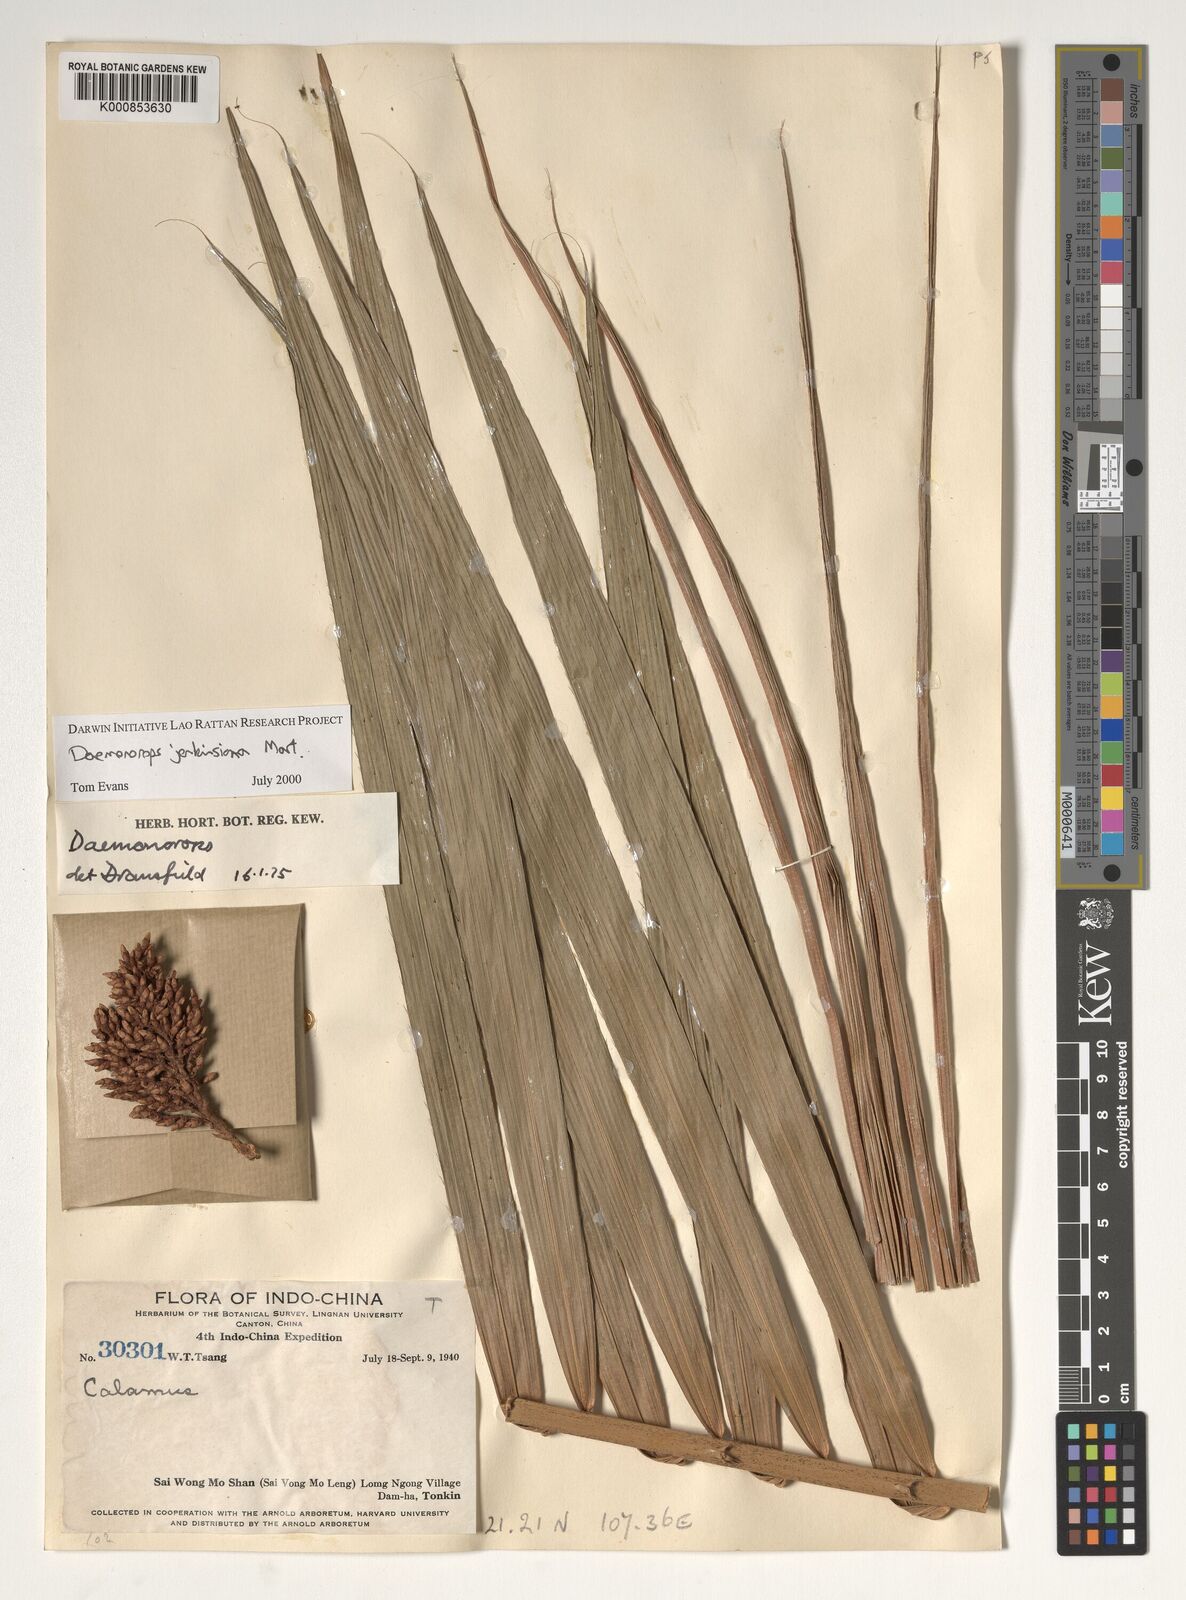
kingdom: Plantae
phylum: Tracheophyta
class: Liliopsida
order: Arecales
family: Arecaceae
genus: Calamus
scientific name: Calamus melanochaetes
